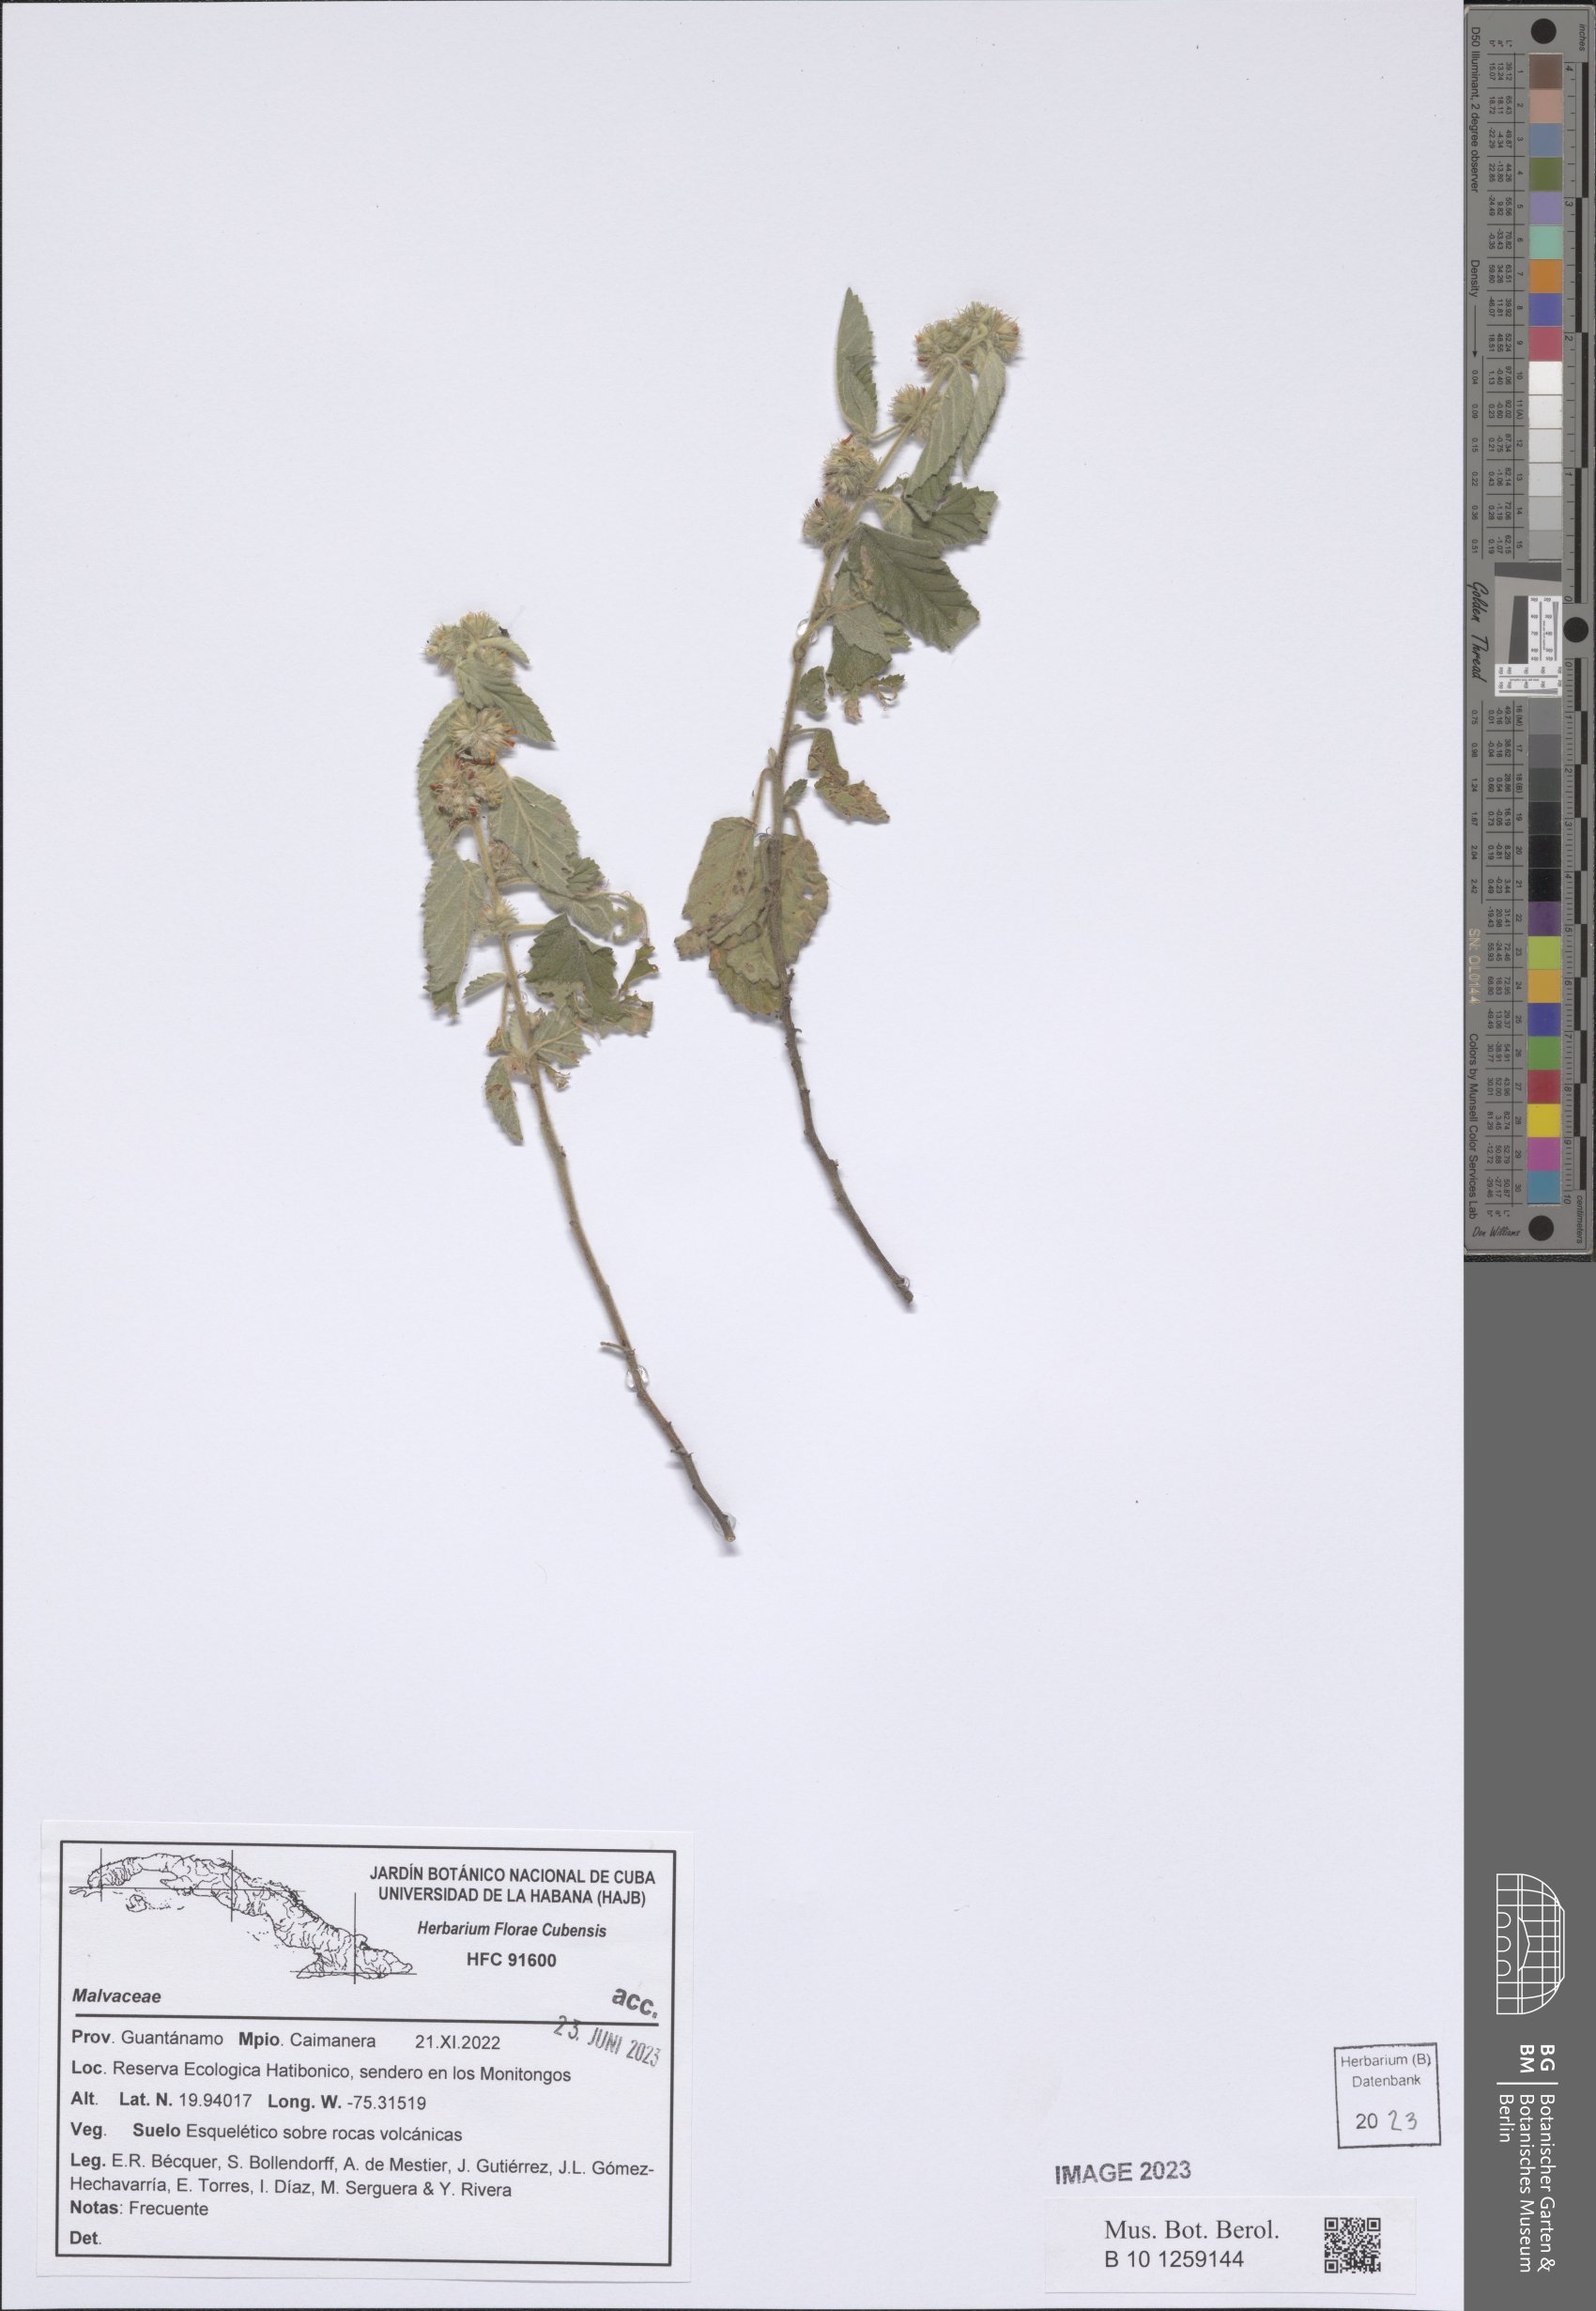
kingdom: Plantae
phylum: Tracheophyta
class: Magnoliopsida
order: Malvales
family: Malvaceae
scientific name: Malvaceae
